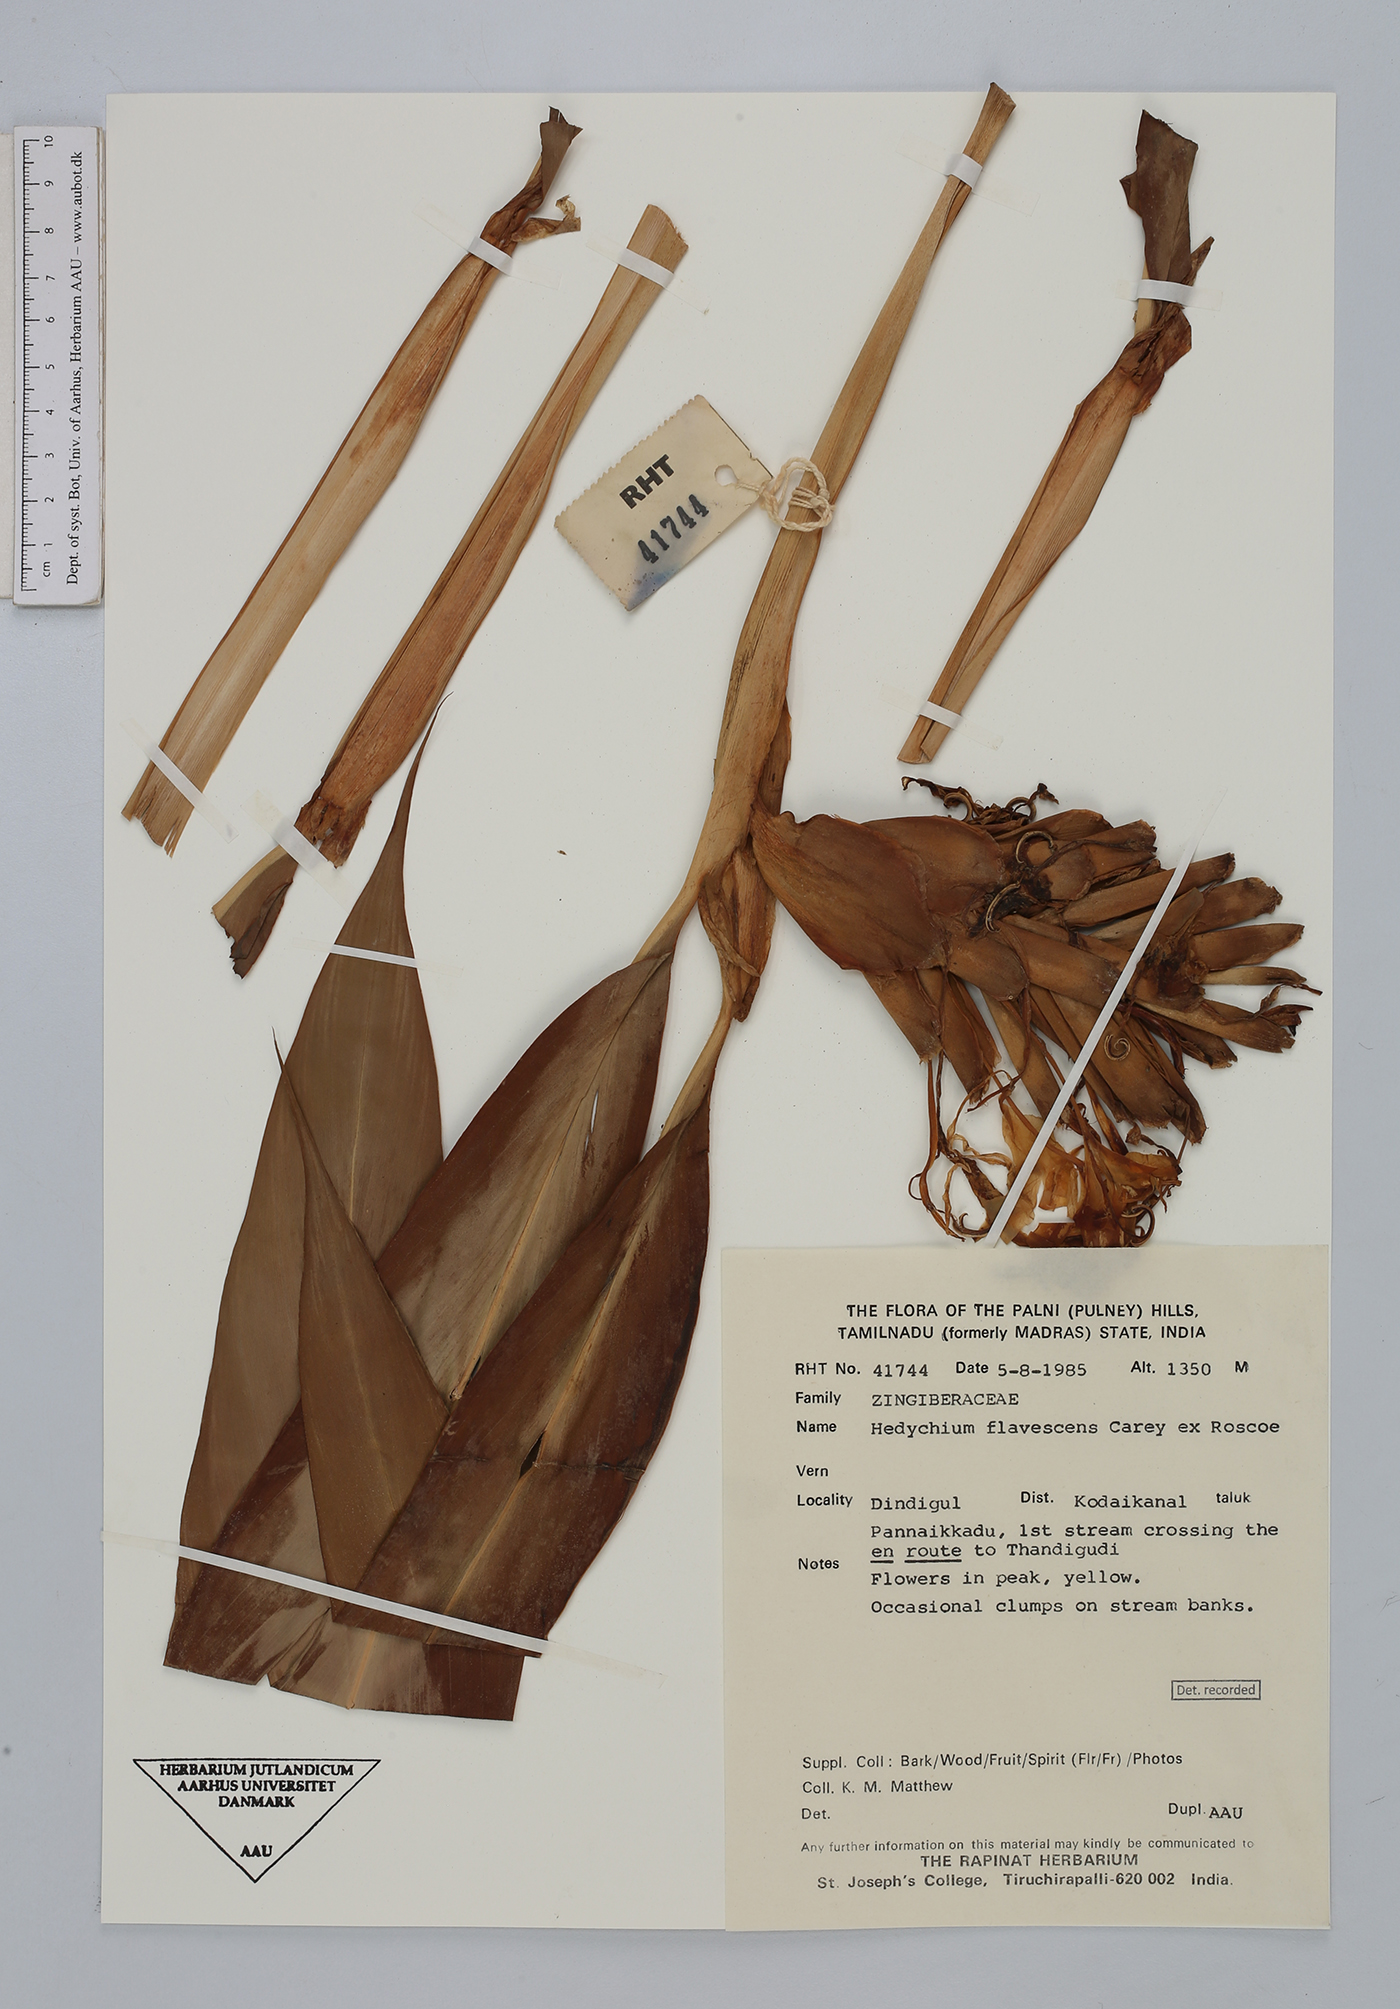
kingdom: Plantae
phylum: Tracheophyta
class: Liliopsida
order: Zingiberales
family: Zingiberaceae
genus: Hedychium
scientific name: Hedychium flavescens
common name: Yellow ginger
